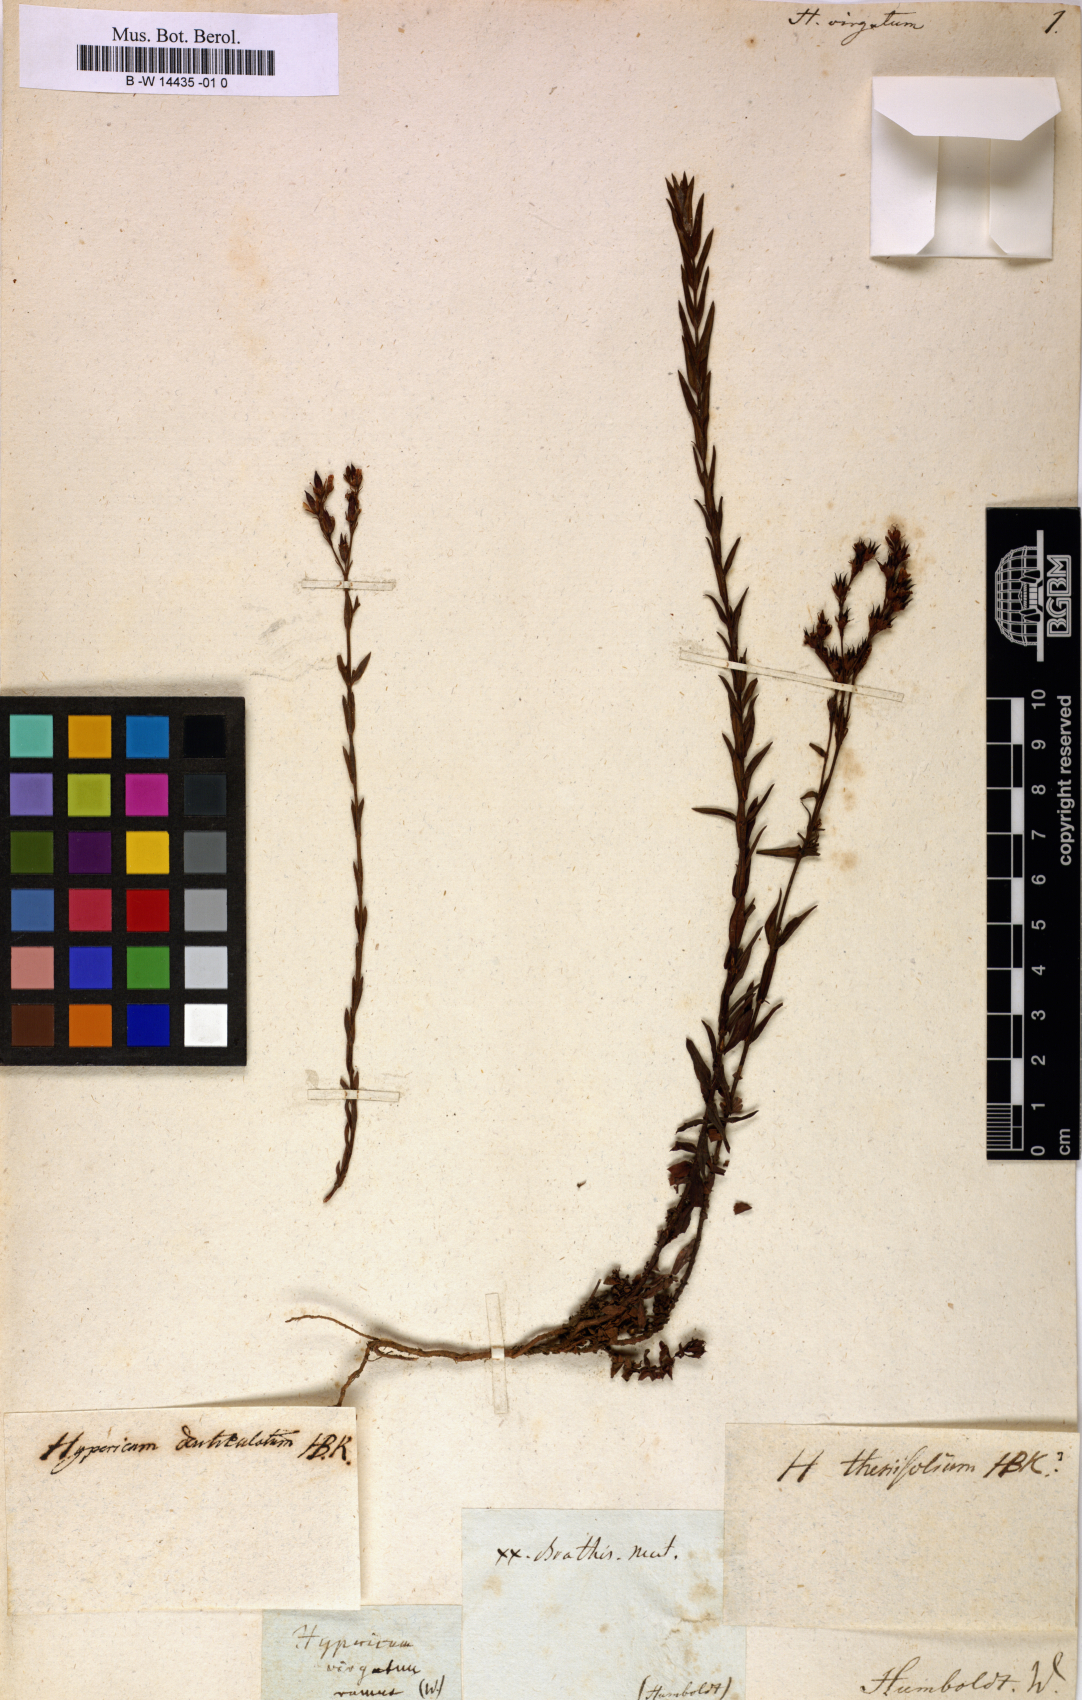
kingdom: Plantae
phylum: Tracheophyta
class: Magnoliopsida
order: Malpighiales
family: Hypericaceae
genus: Hypericum
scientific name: Hypericum virgatum
